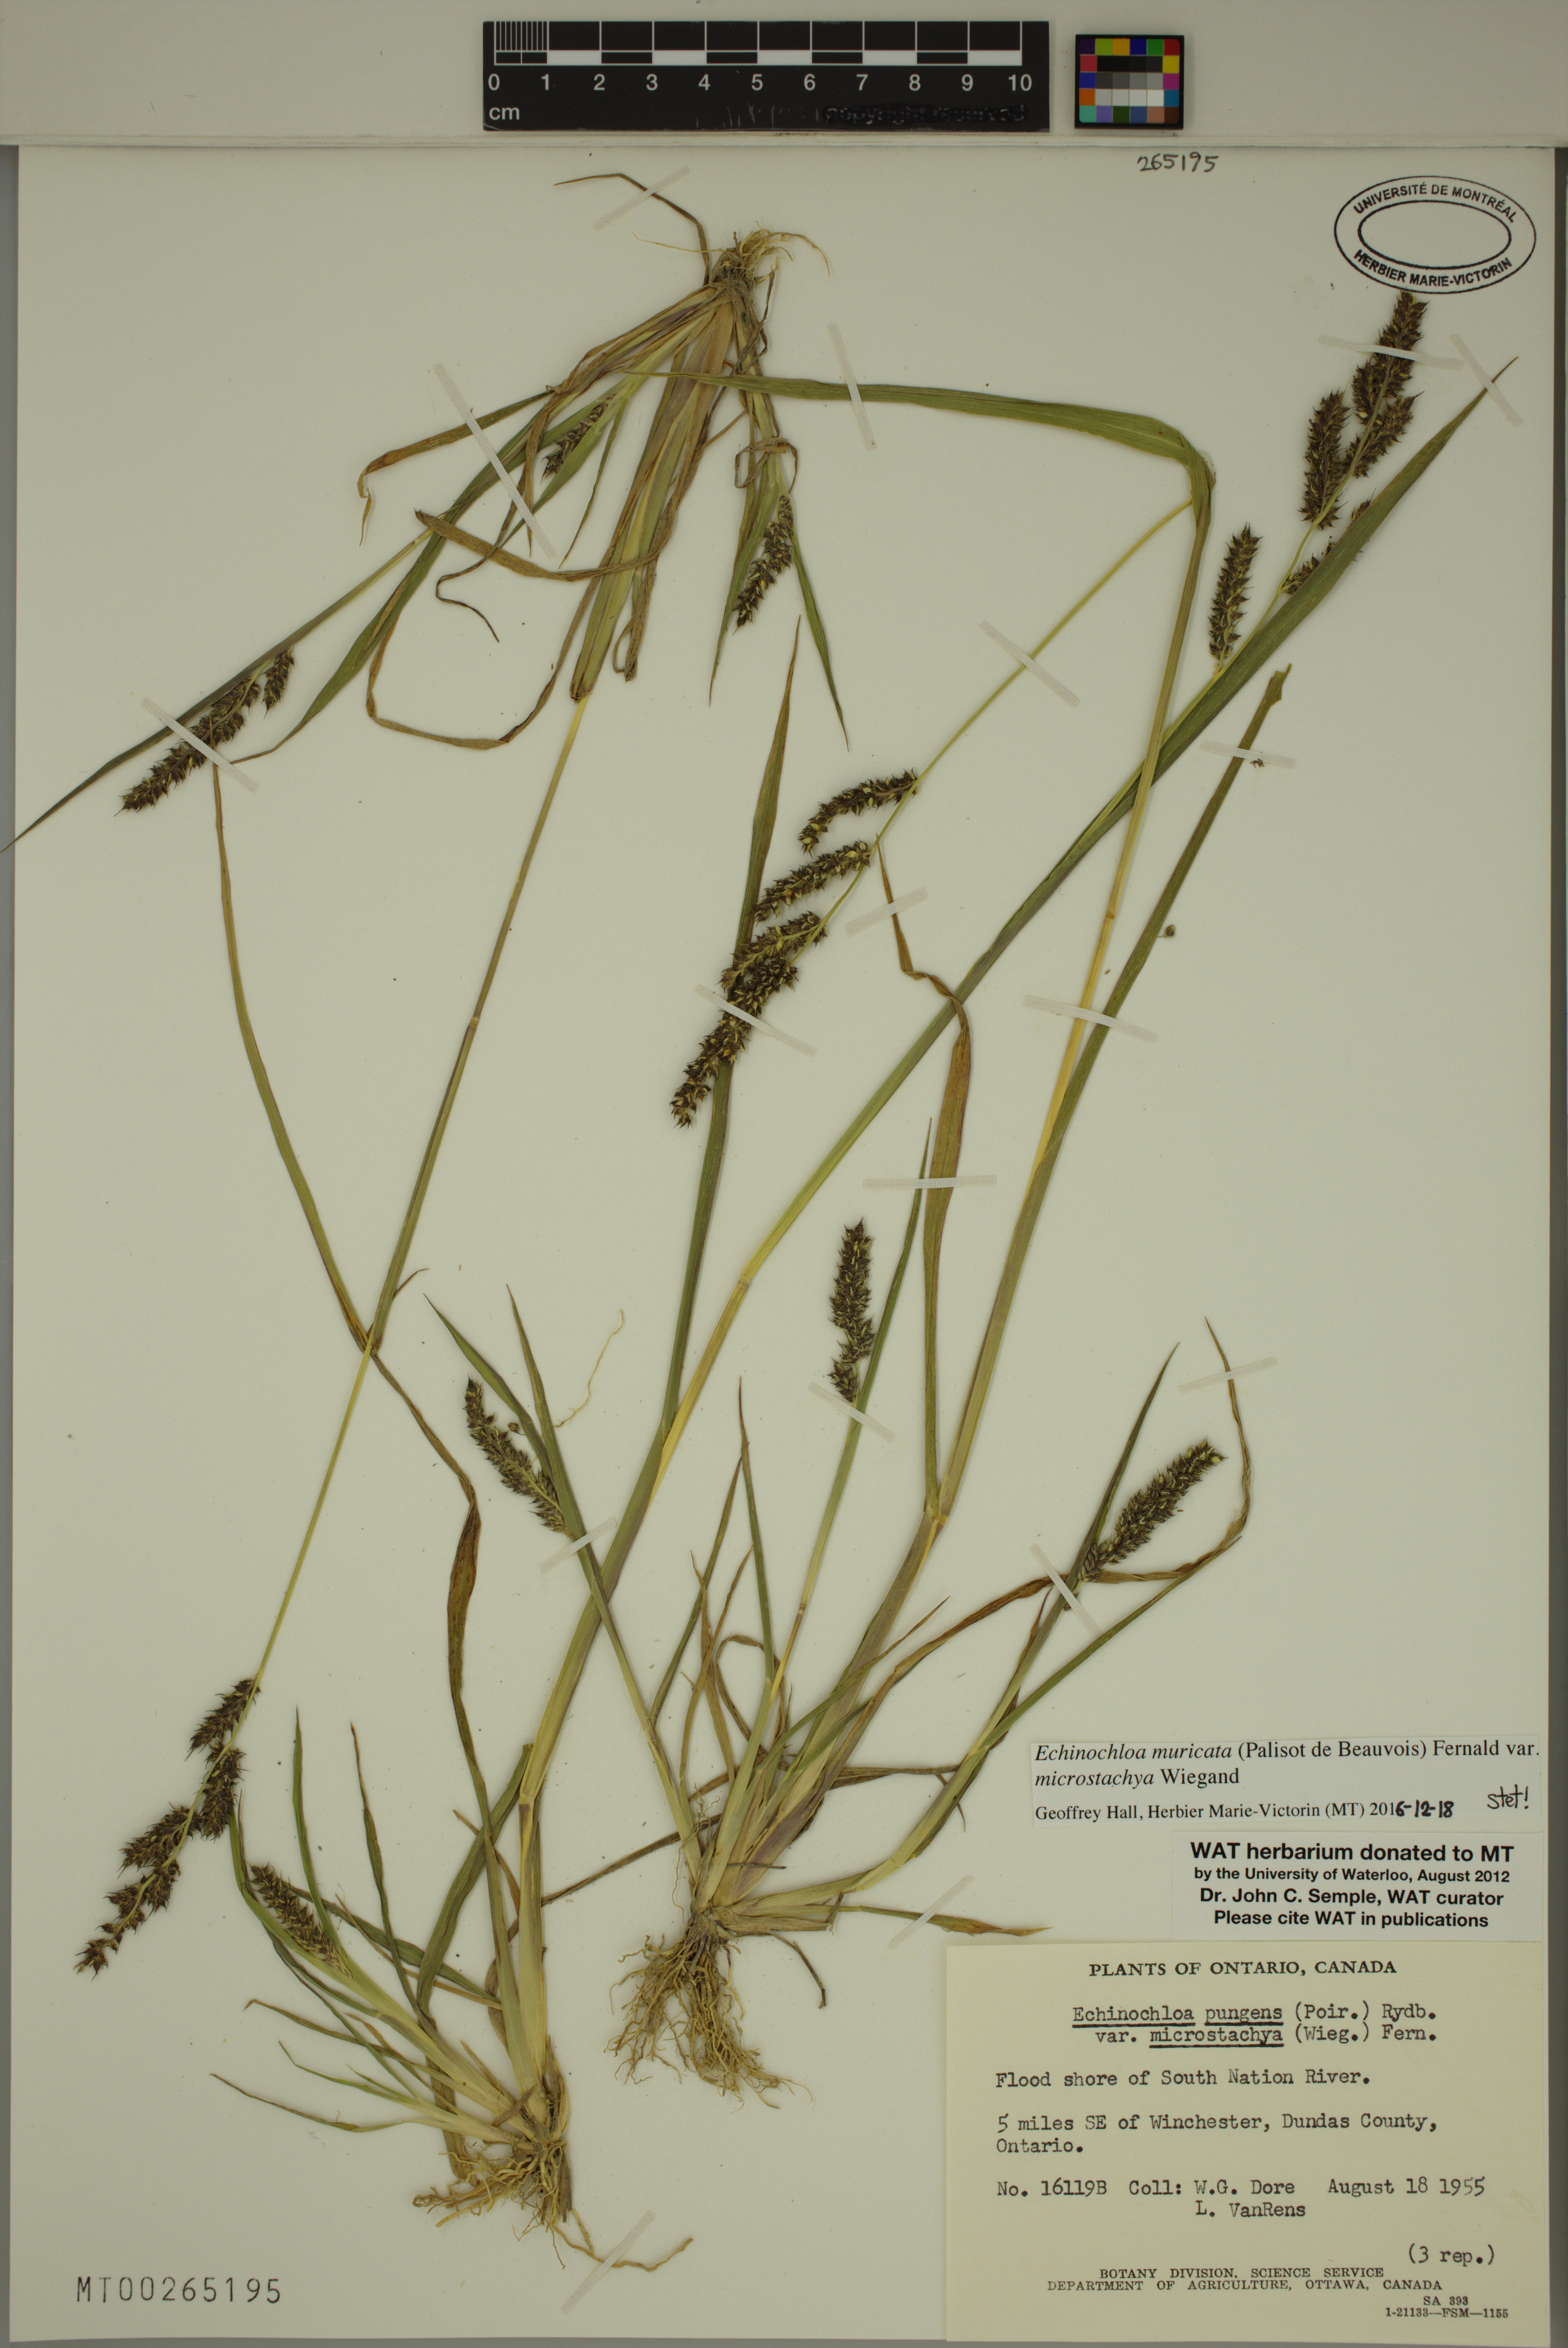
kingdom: Plantae
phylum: Tracheophyta
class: Liliopsida
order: Poales
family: Poaceae
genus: Echinochloa
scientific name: Echinochloa muricata
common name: American barnyard grass
